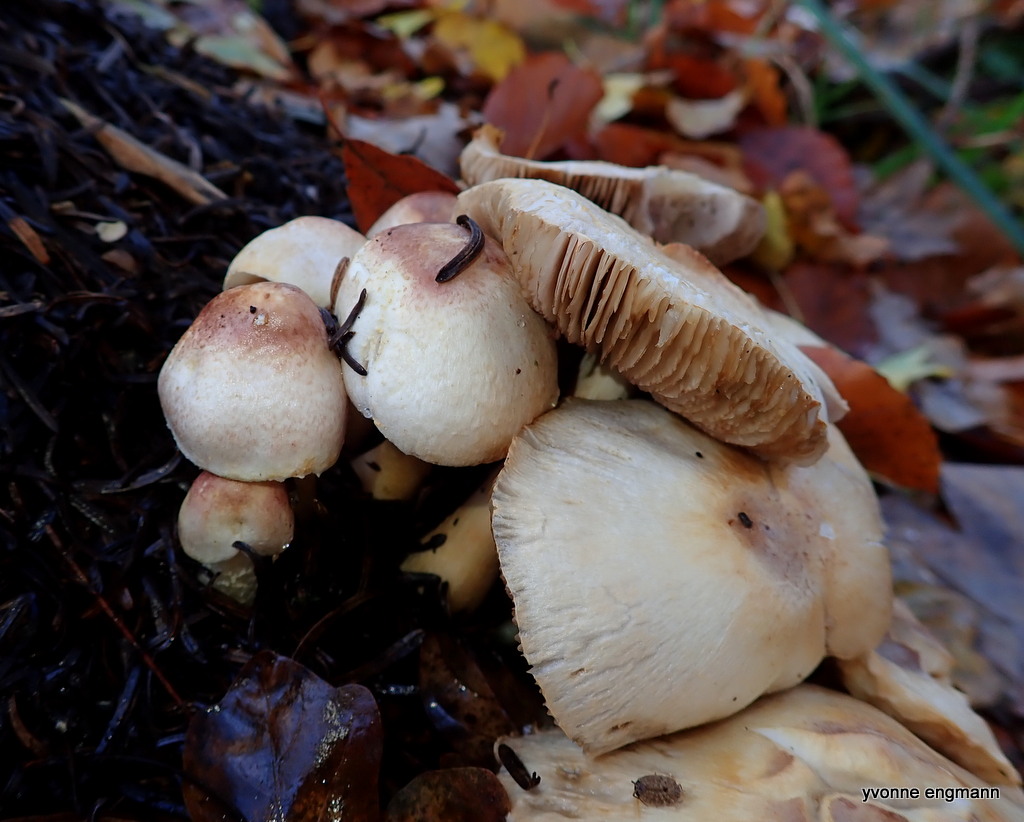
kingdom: Fungi
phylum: Basidiomycota
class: Agaricomycetes
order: Agaricales
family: Agaricaceae
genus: Agaricus
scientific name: Agaricus dulcidulus
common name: blegrød champignon
